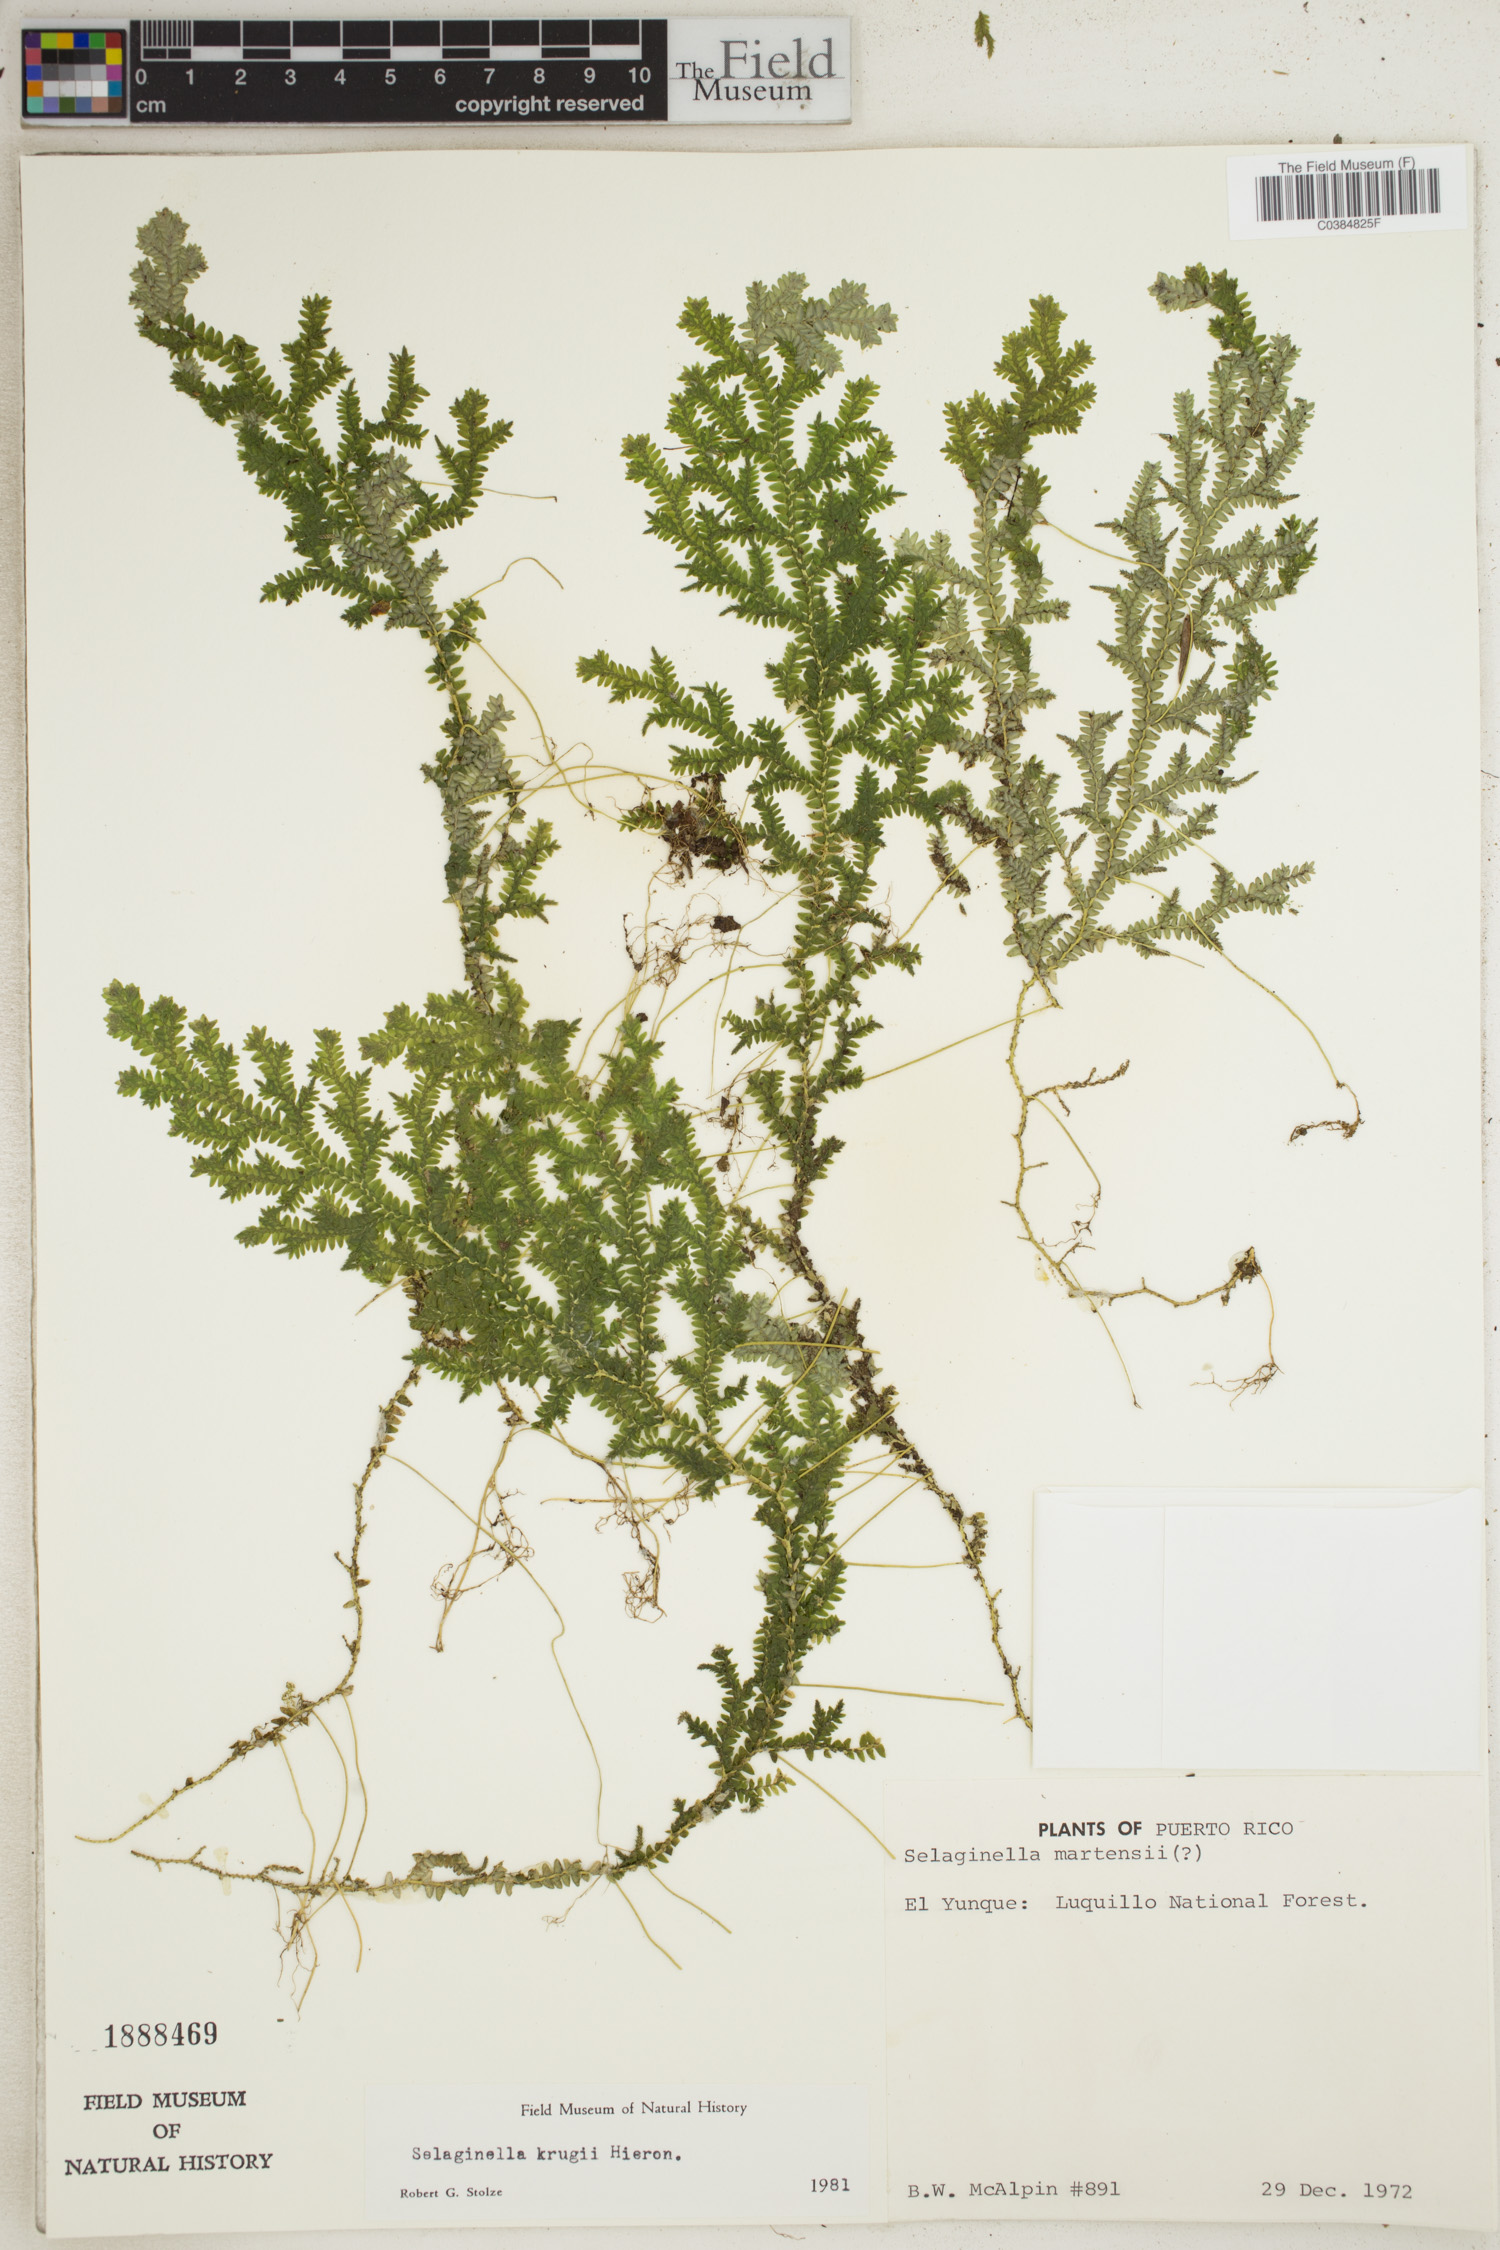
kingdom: Plantae
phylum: Tracheophyta
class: Lycopodiopsida
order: Selaginellales
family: Selaginellaceae
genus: Selaginella
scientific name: Selaginella krugii
